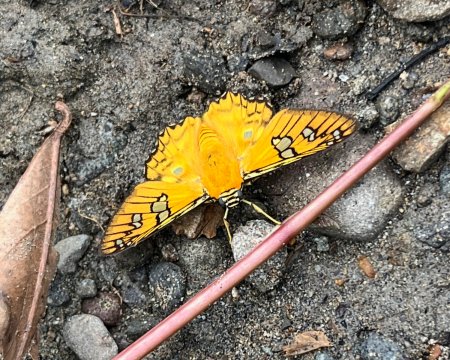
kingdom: Animalia
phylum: Arthropoda
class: Insecta
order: Lepidoptera
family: Hesperiidae
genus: Myscelus
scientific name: Myscelus amystis
